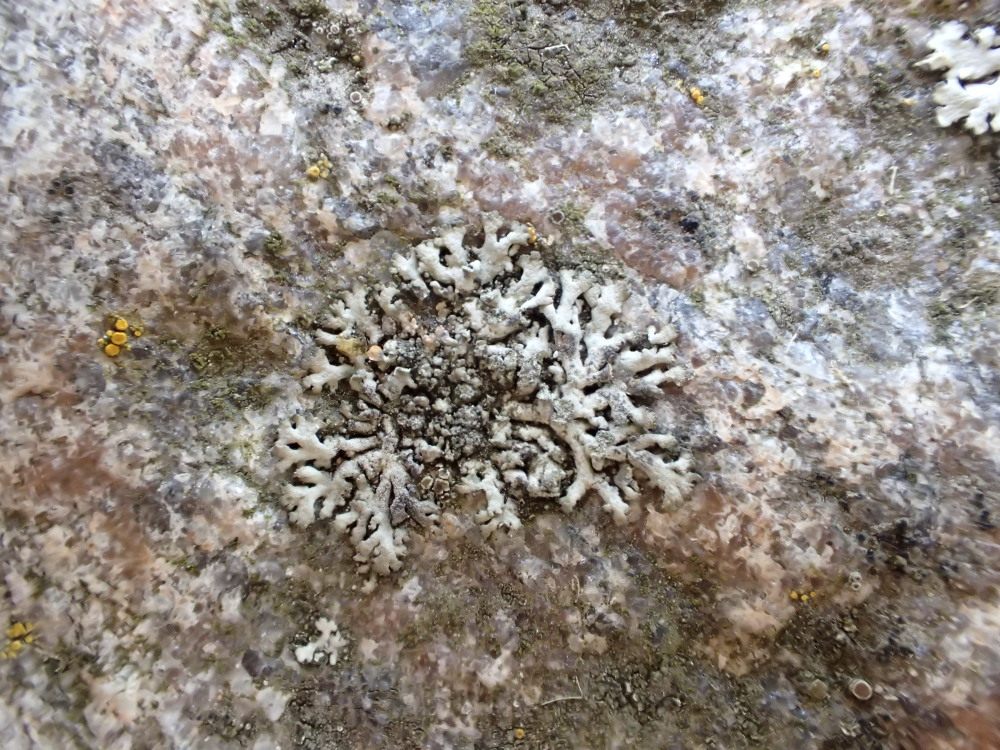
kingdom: Fungi
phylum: Ascomycota
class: Lecanoromycetes
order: Caliciales
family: Physciaceae
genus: Phaeophyscia
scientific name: Phaeophyscia orbicularis
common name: grågrøn rosetlav
